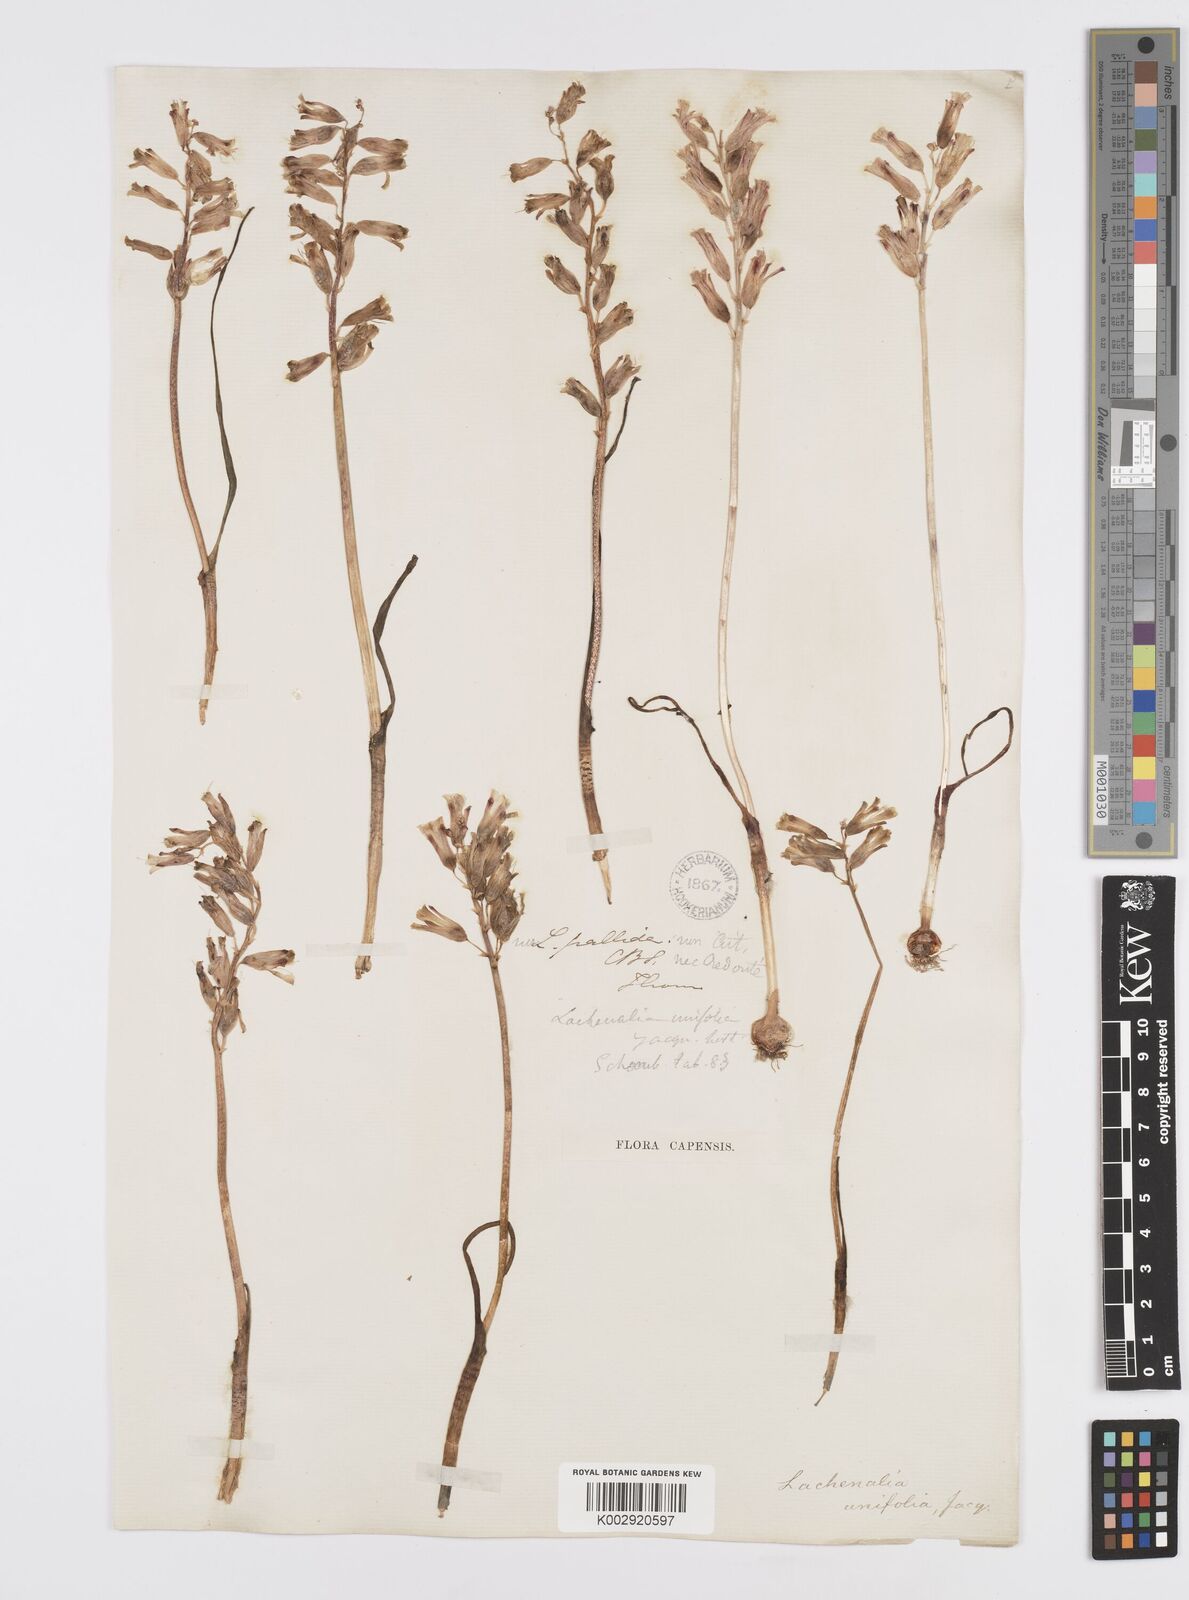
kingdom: Plantae
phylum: Tracheophyta
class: Liliopsida
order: Asparagales
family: Asparagaceae
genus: Lachenalia
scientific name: Lachenalia unifolia
